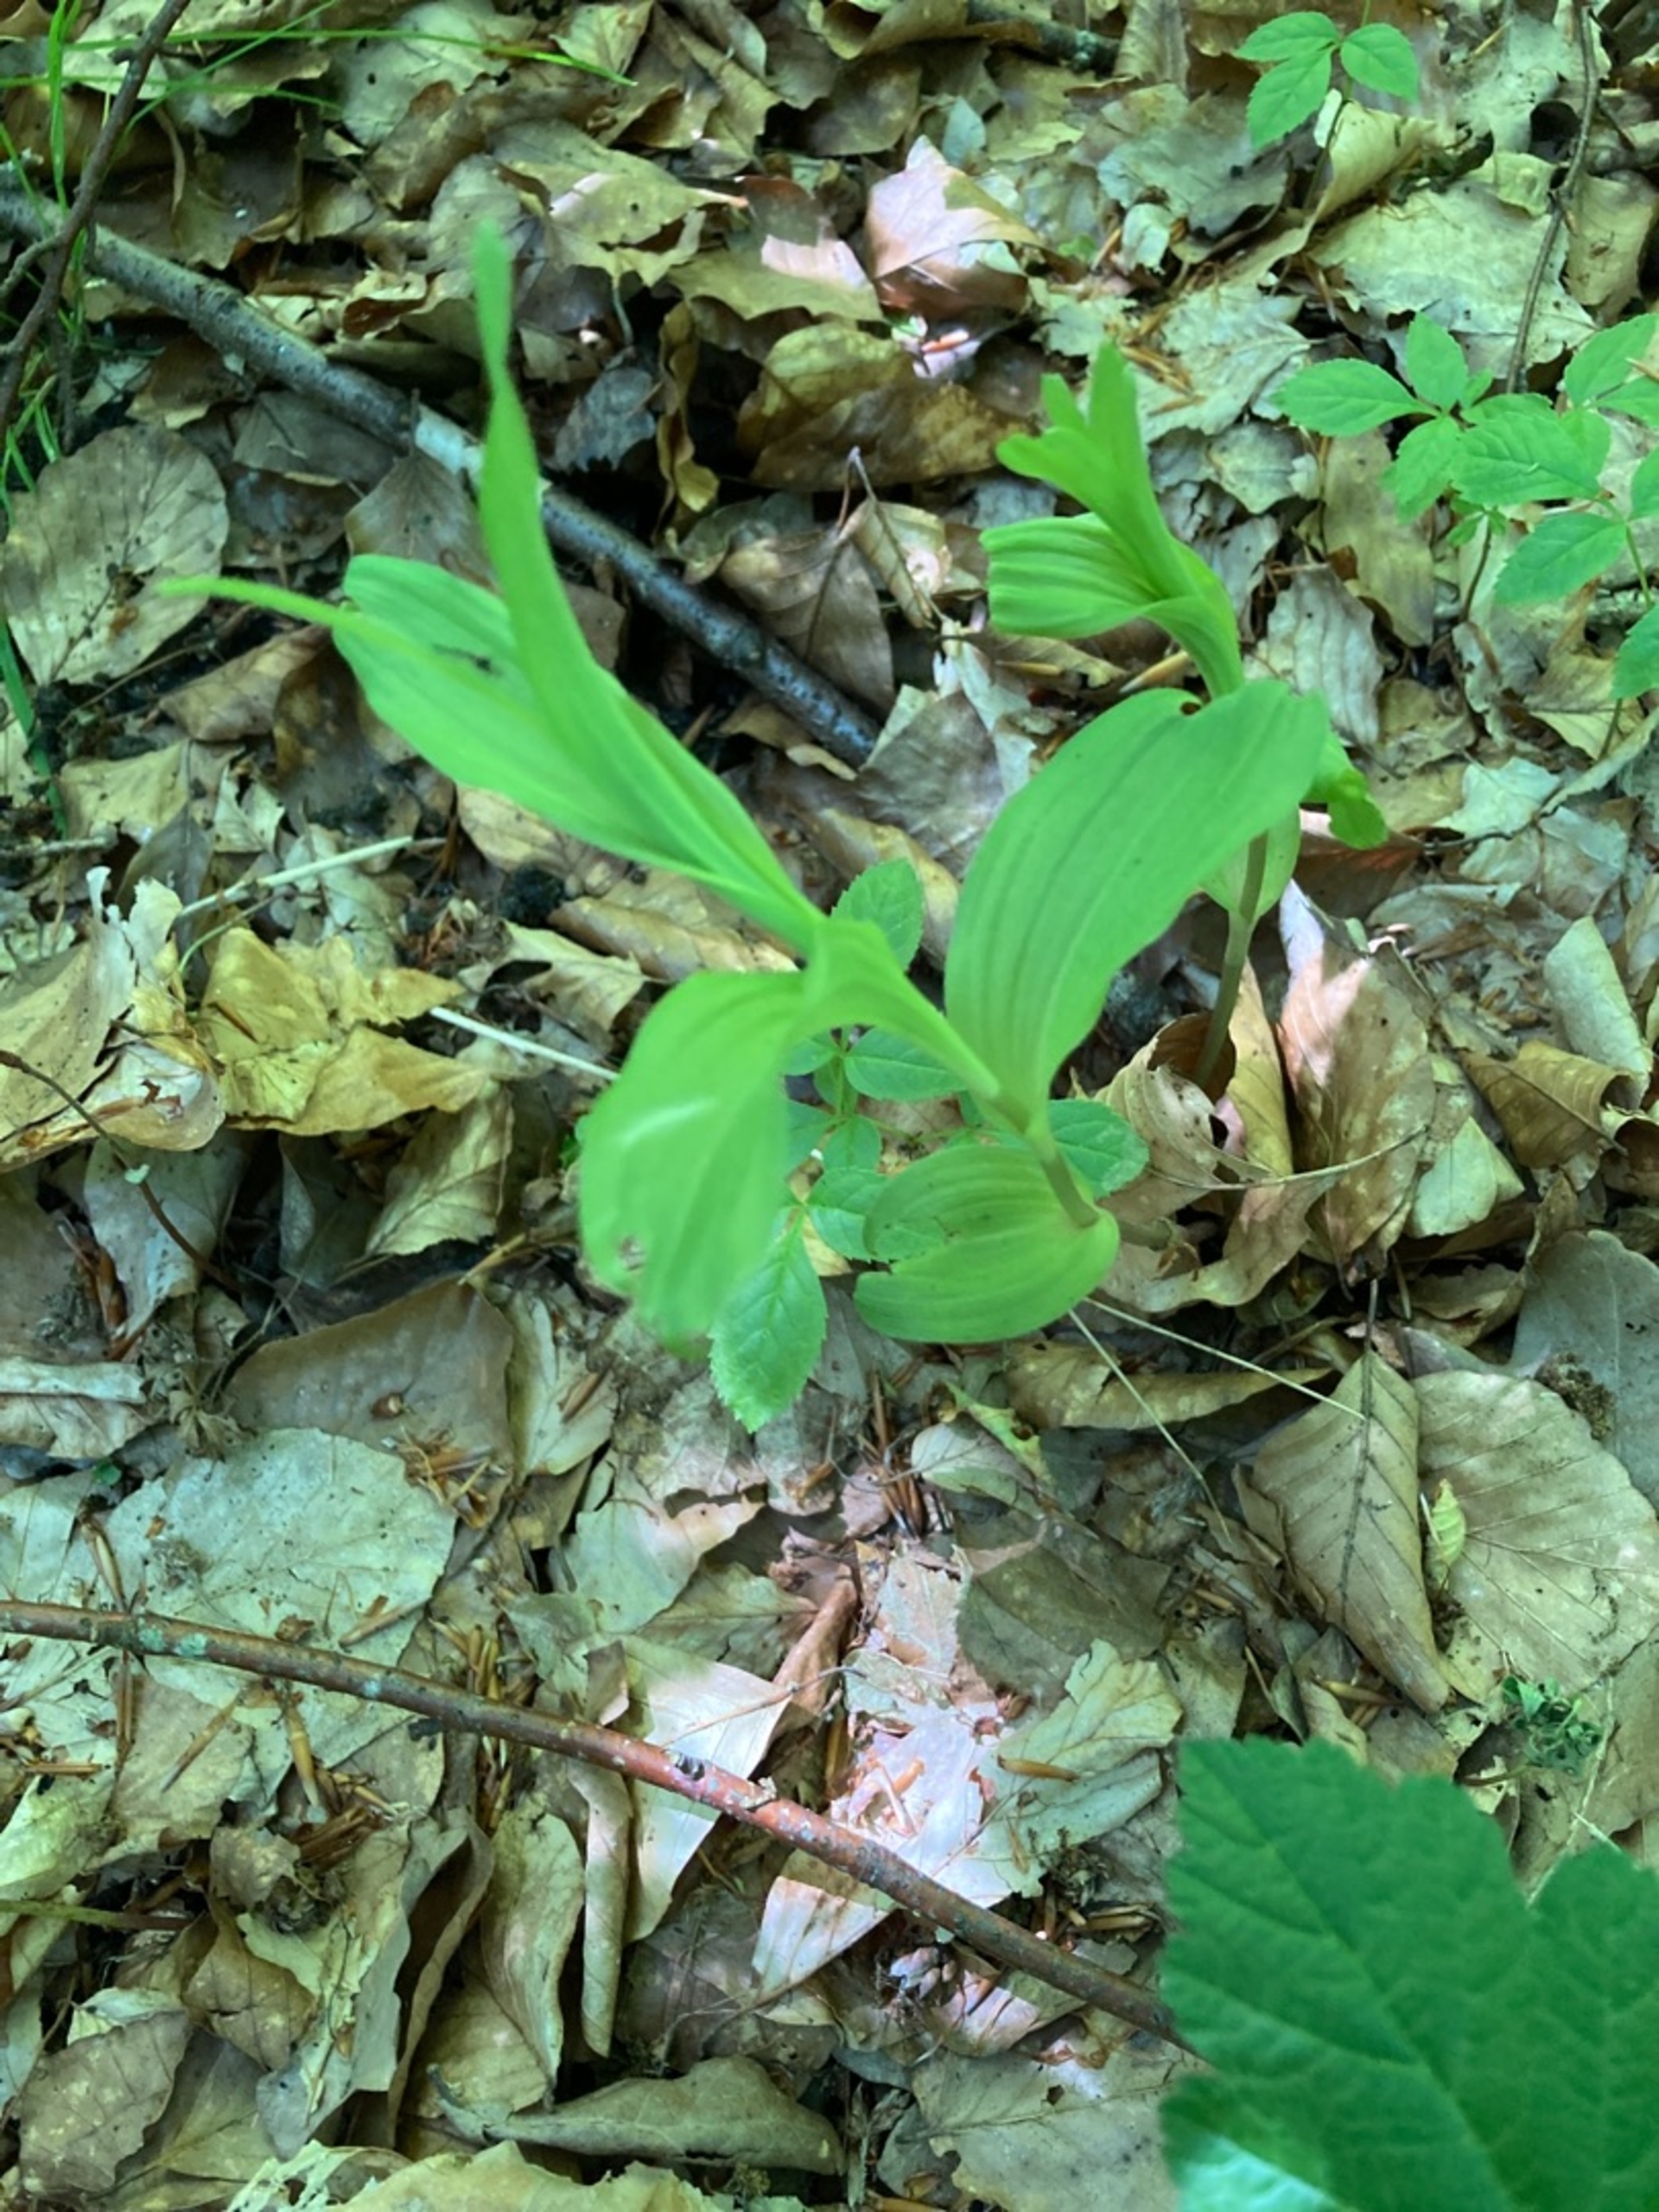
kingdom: Plantae
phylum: Tracheophyta
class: Liliopsida
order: Asparagales
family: Orchidaceae
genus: Epipactis
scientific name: Epipactis helleborine
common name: Skov-hullæbe
